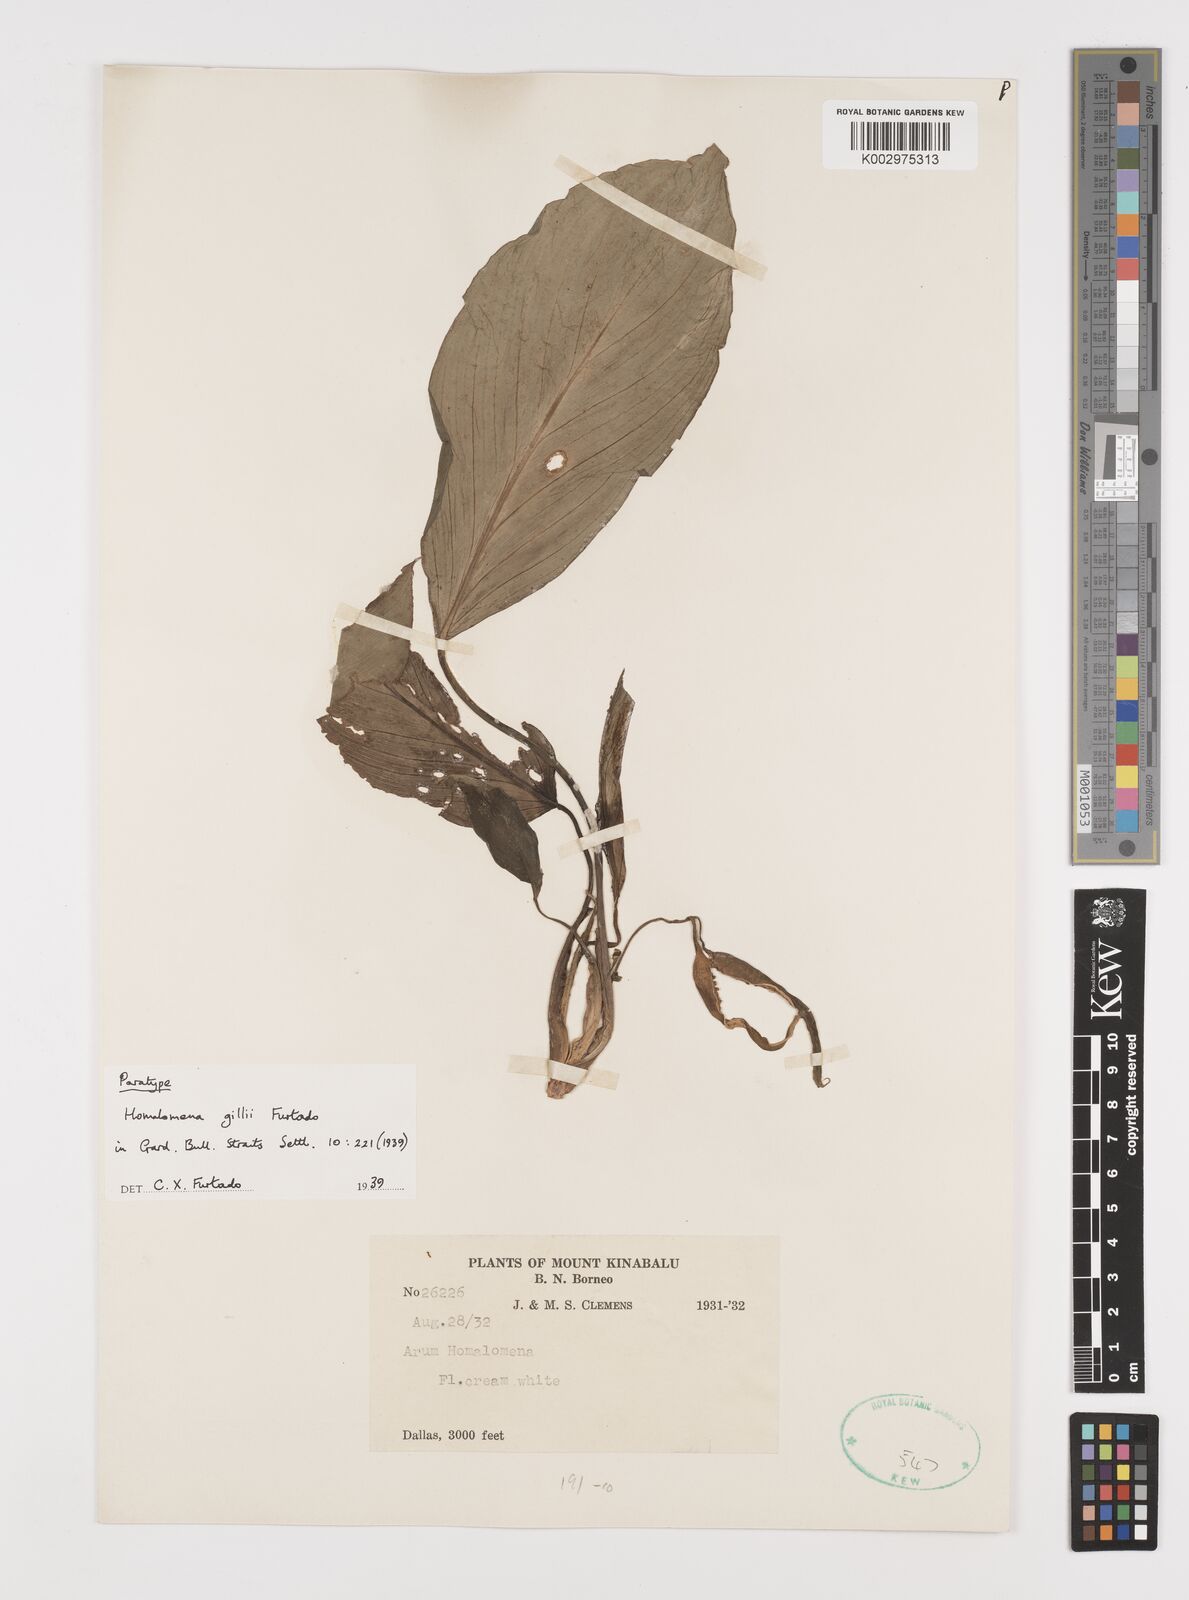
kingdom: Plantae
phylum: Tracheophyta
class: Liliopsida
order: Alismatales
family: Araceae
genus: Homalomena
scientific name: Homalomena gillii
